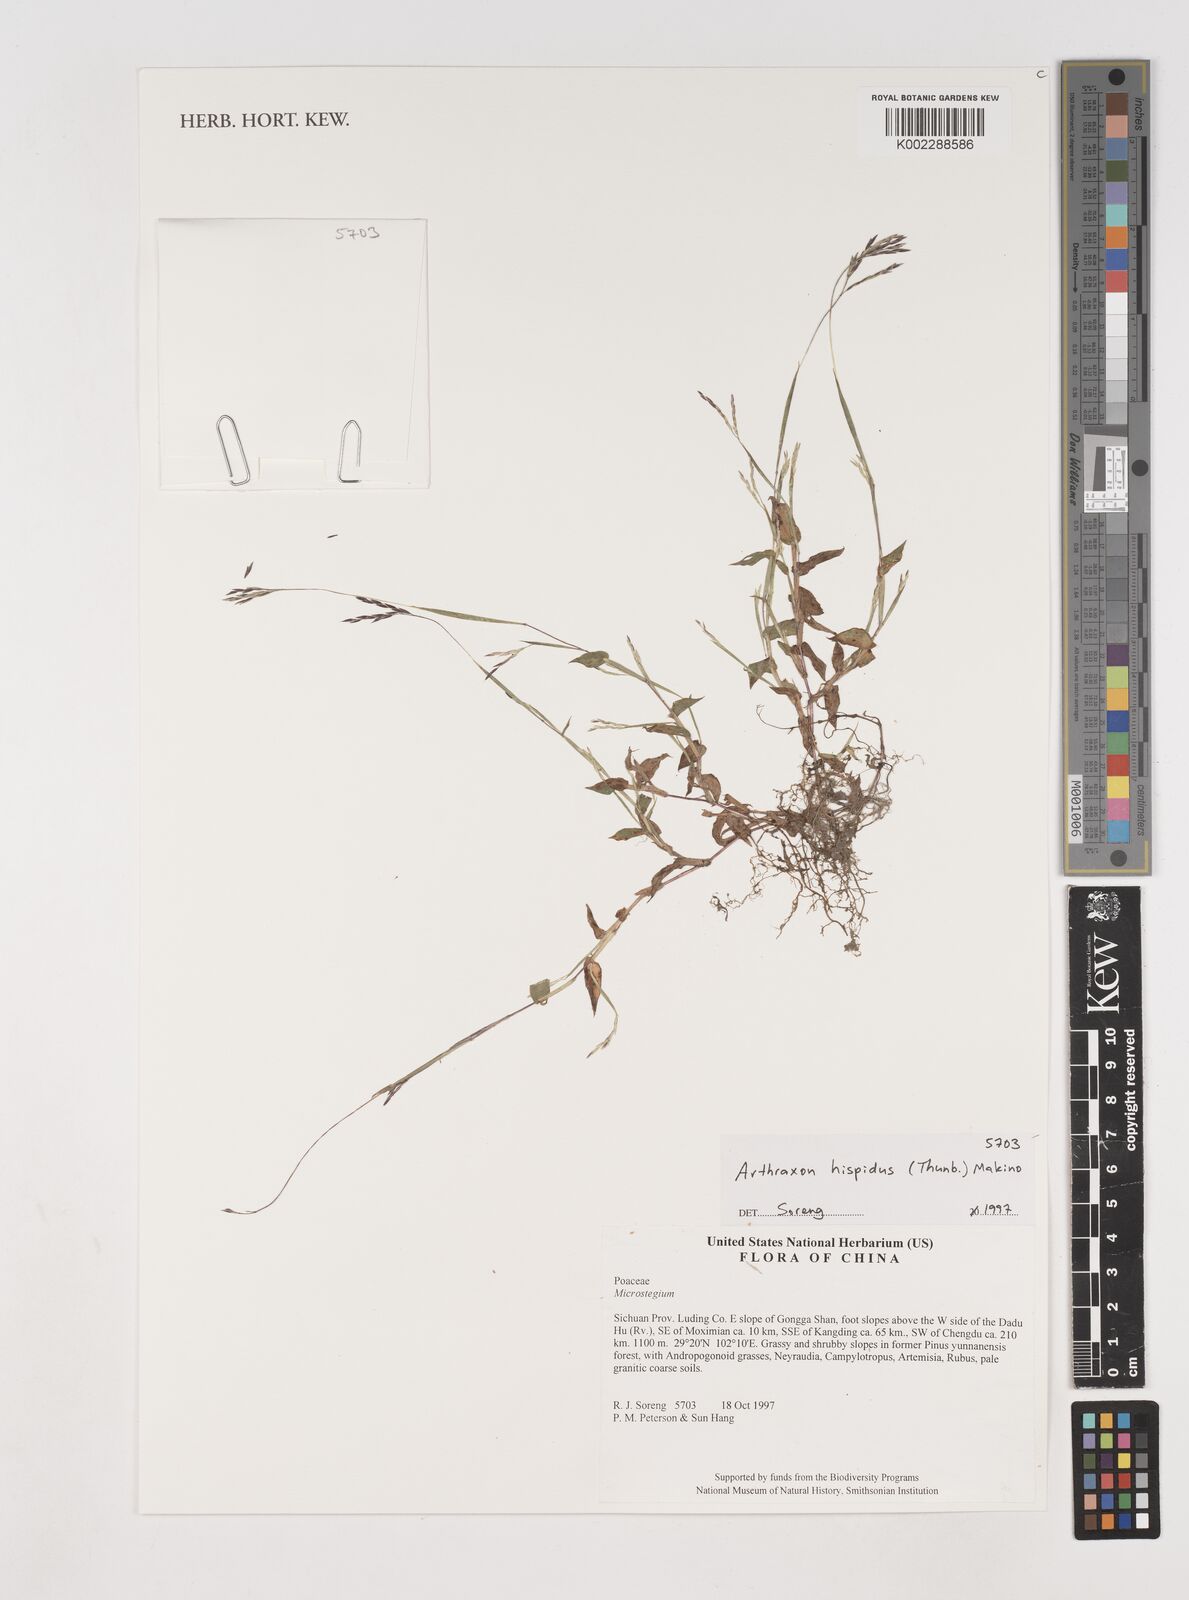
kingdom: Plantae
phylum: Tracheophyta
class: Liliopsida
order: Poales
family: Poaceae
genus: Arthraxon
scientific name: Arthraxon hispidus
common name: Small carpgrass
